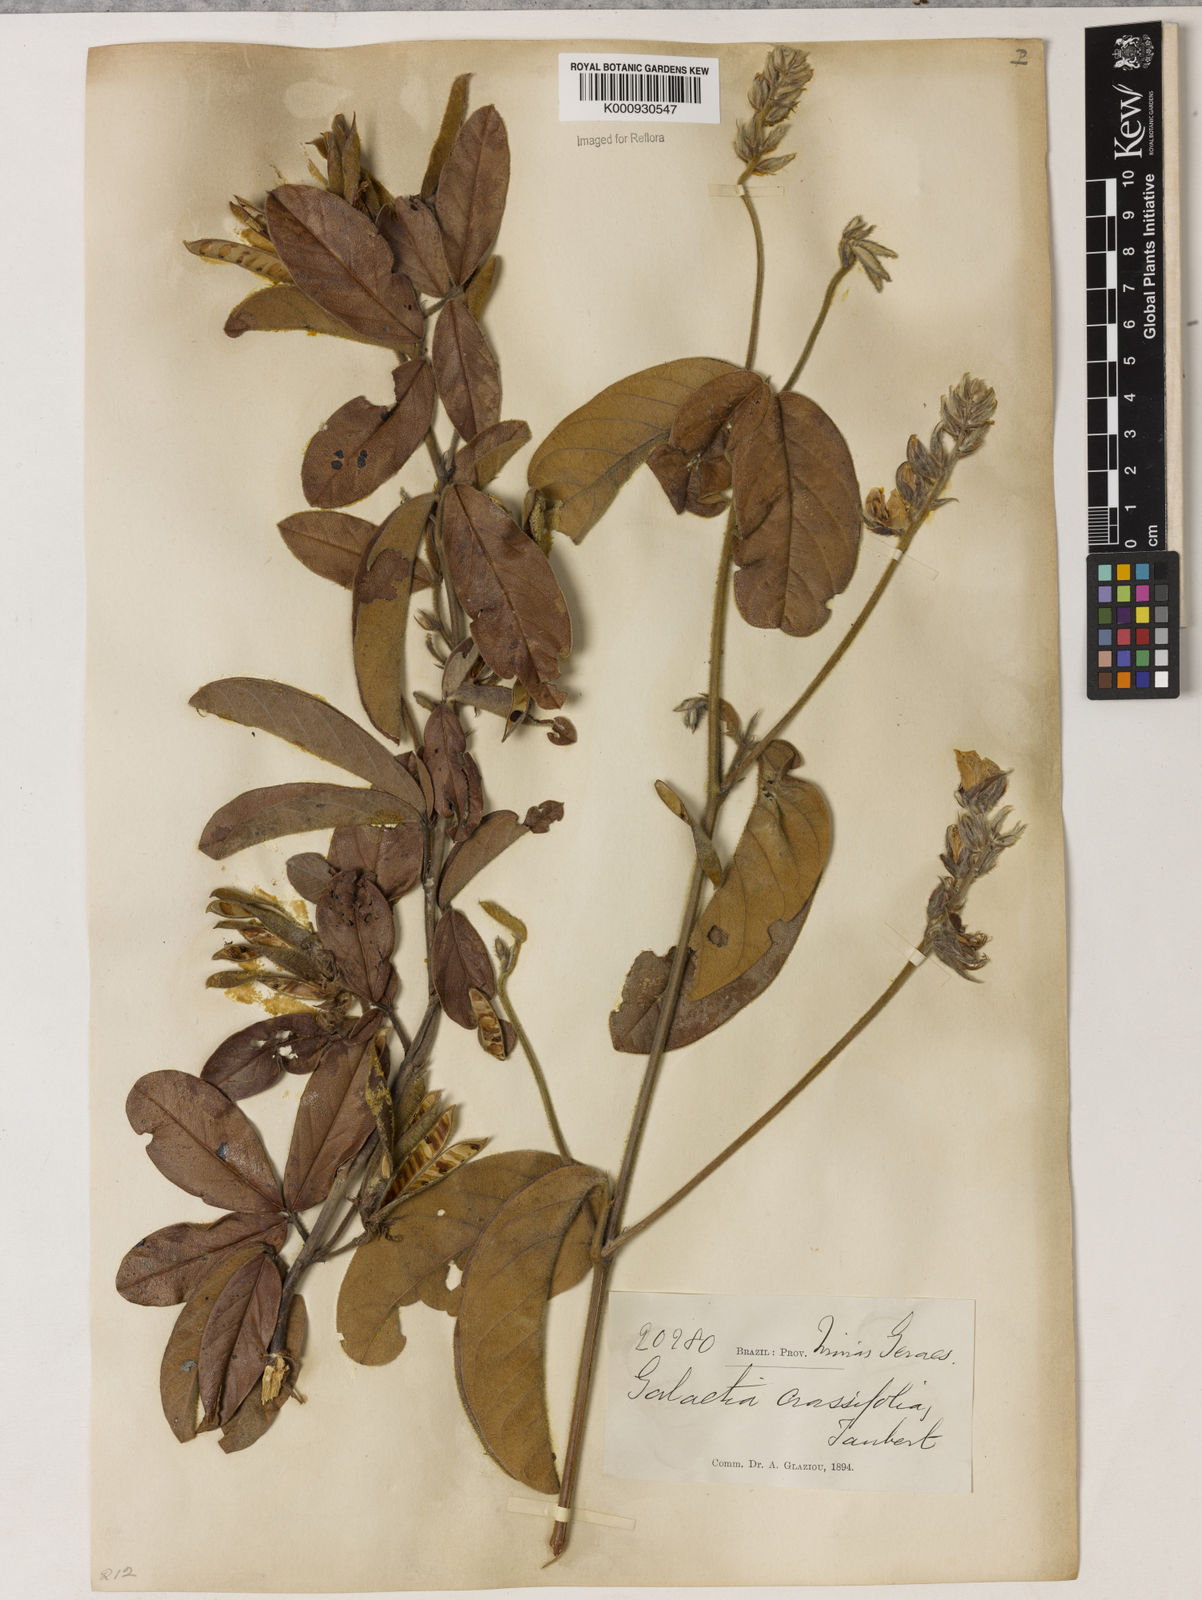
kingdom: Plantae
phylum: Tracheophyta
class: Magnoliopsida
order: Fabales
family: Fabaceae
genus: Betencourtia
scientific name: Betencourtia crassifolia
